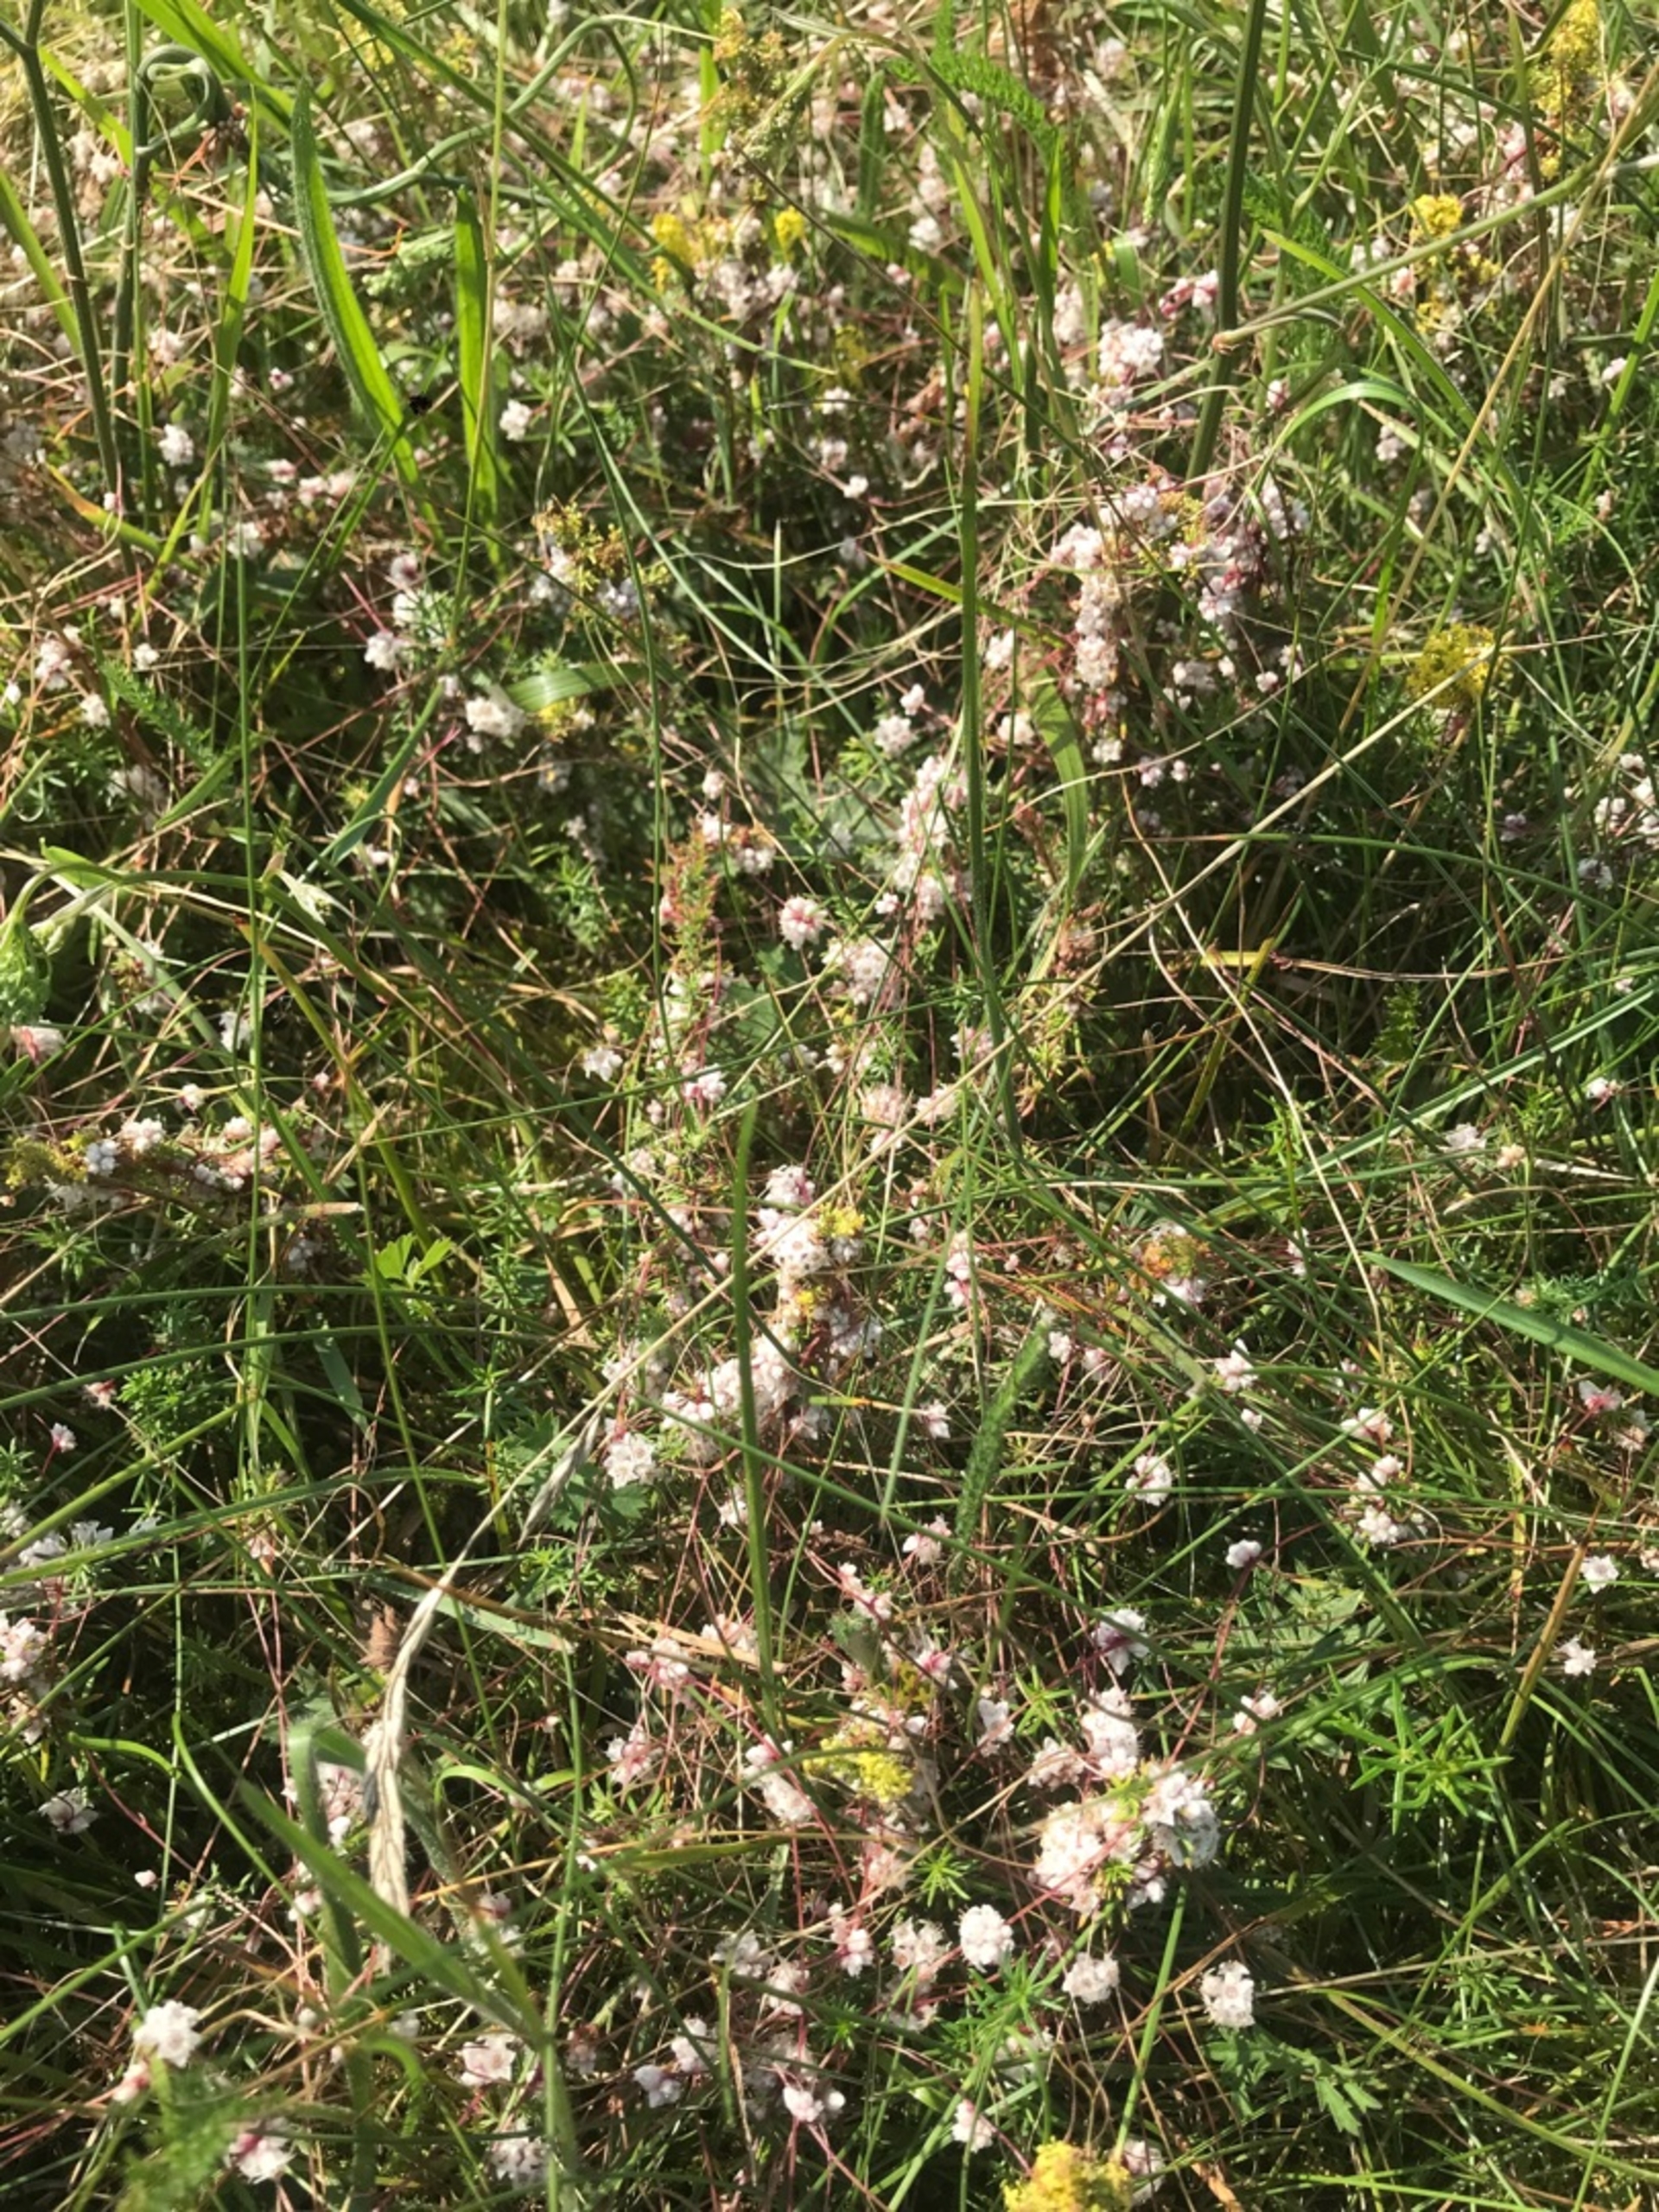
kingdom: Plantae
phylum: Tracheophyta
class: Magnoliopsida
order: Solanales
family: Convolvulaceae
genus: Cuscuta
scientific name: Cuscuta epithymum
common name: Lyng-silke
